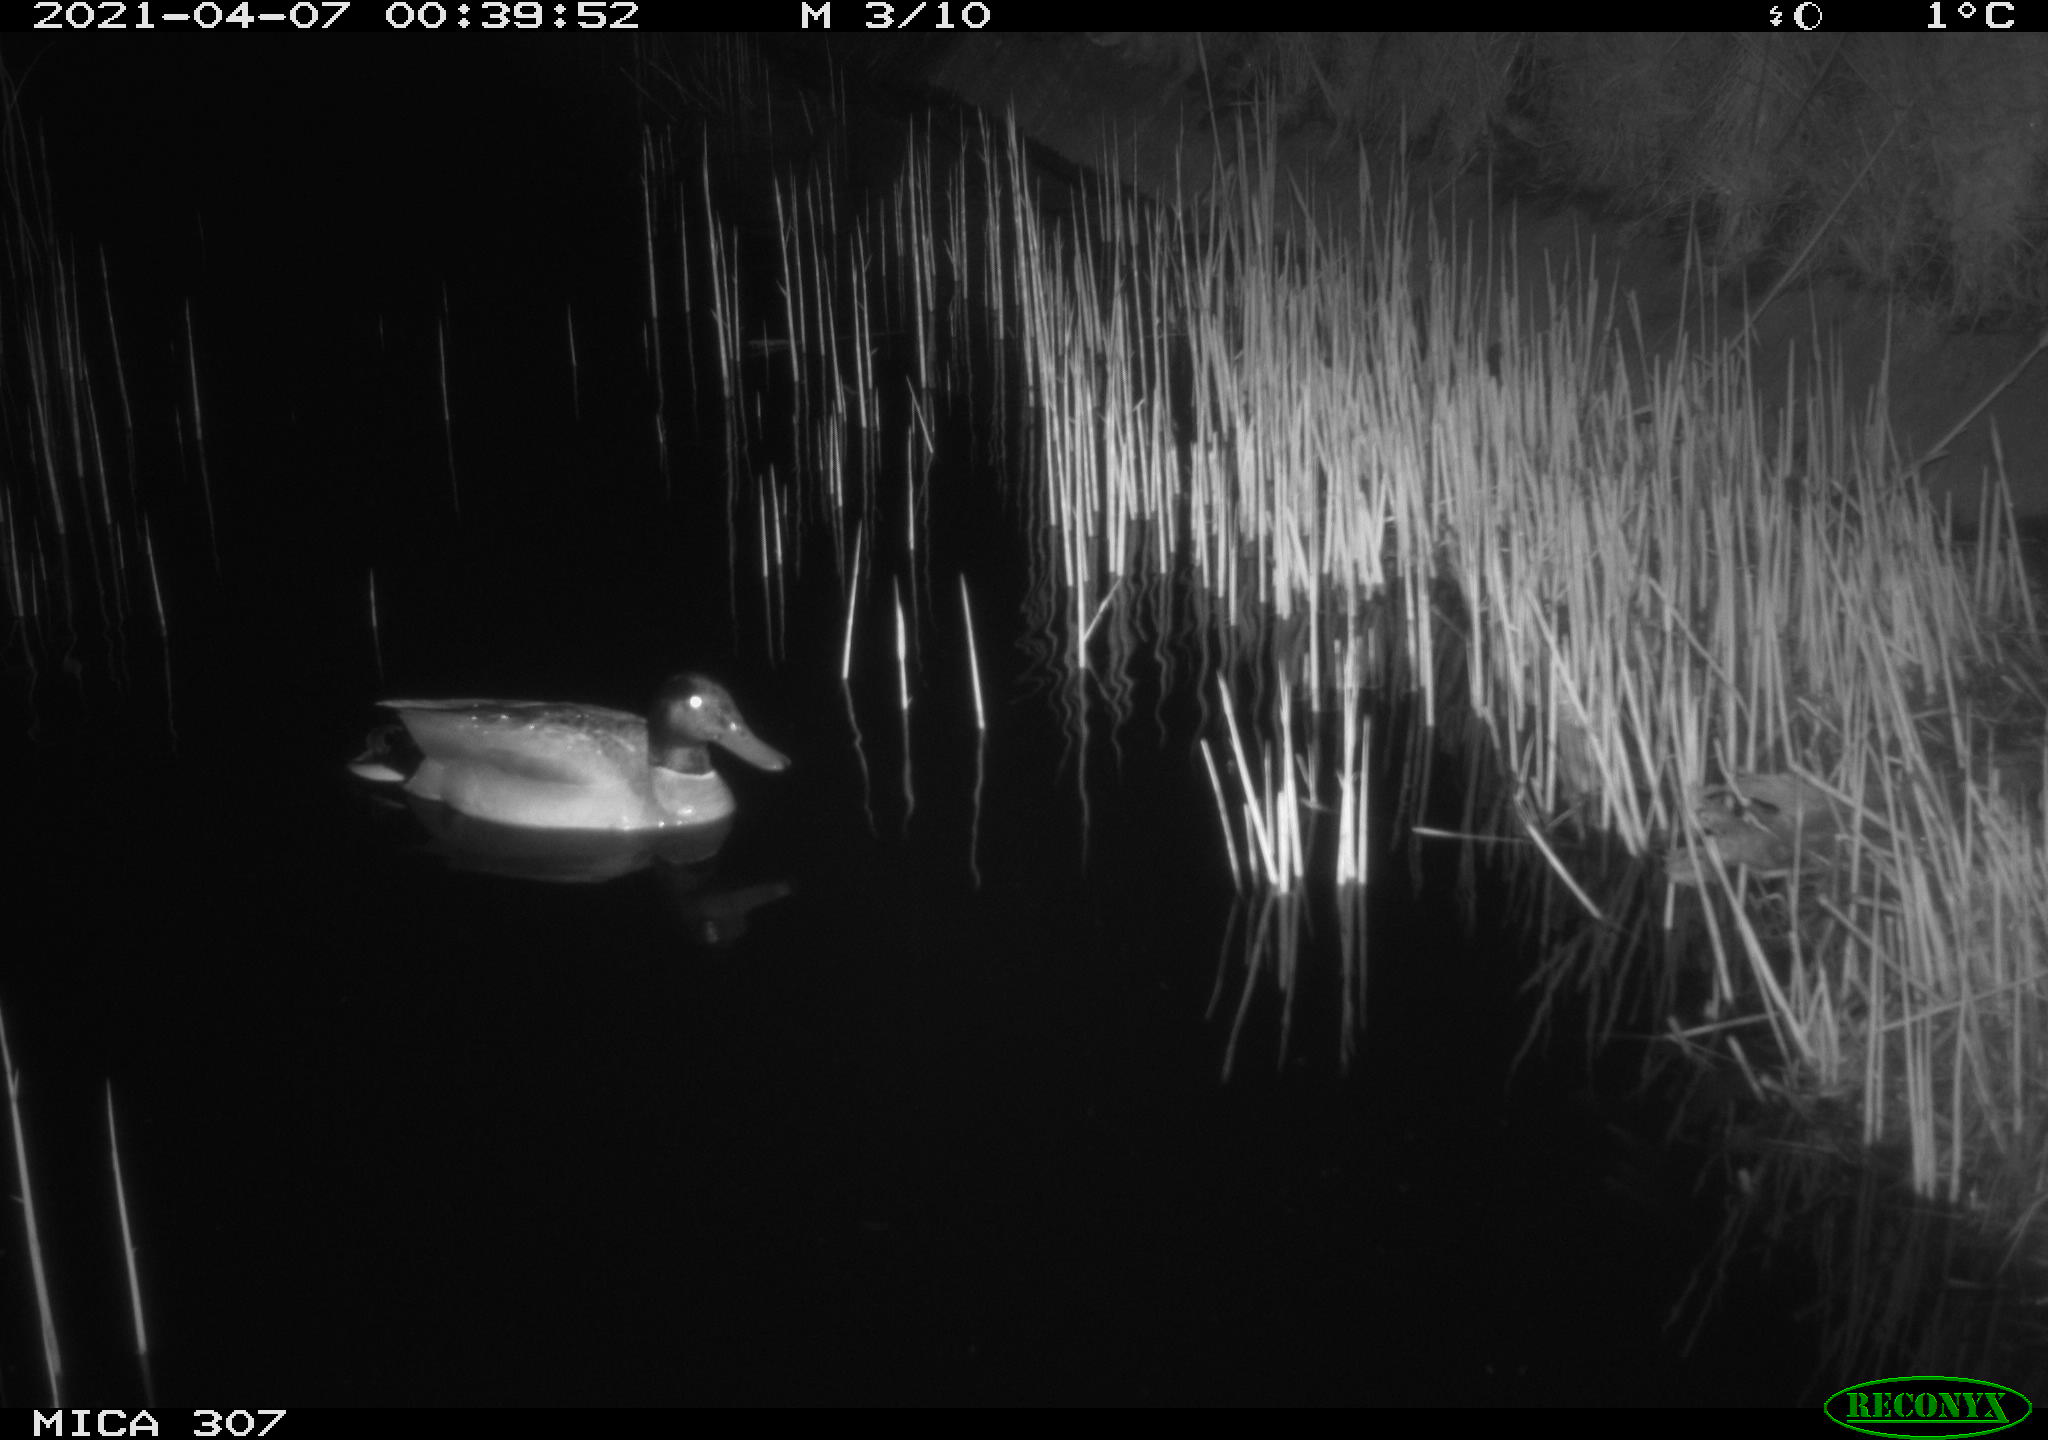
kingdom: Animalia
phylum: Chordata
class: Aves
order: Anseriformes
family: Anatidae
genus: Anas
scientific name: Anas platyrhynchos
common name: Mallard
